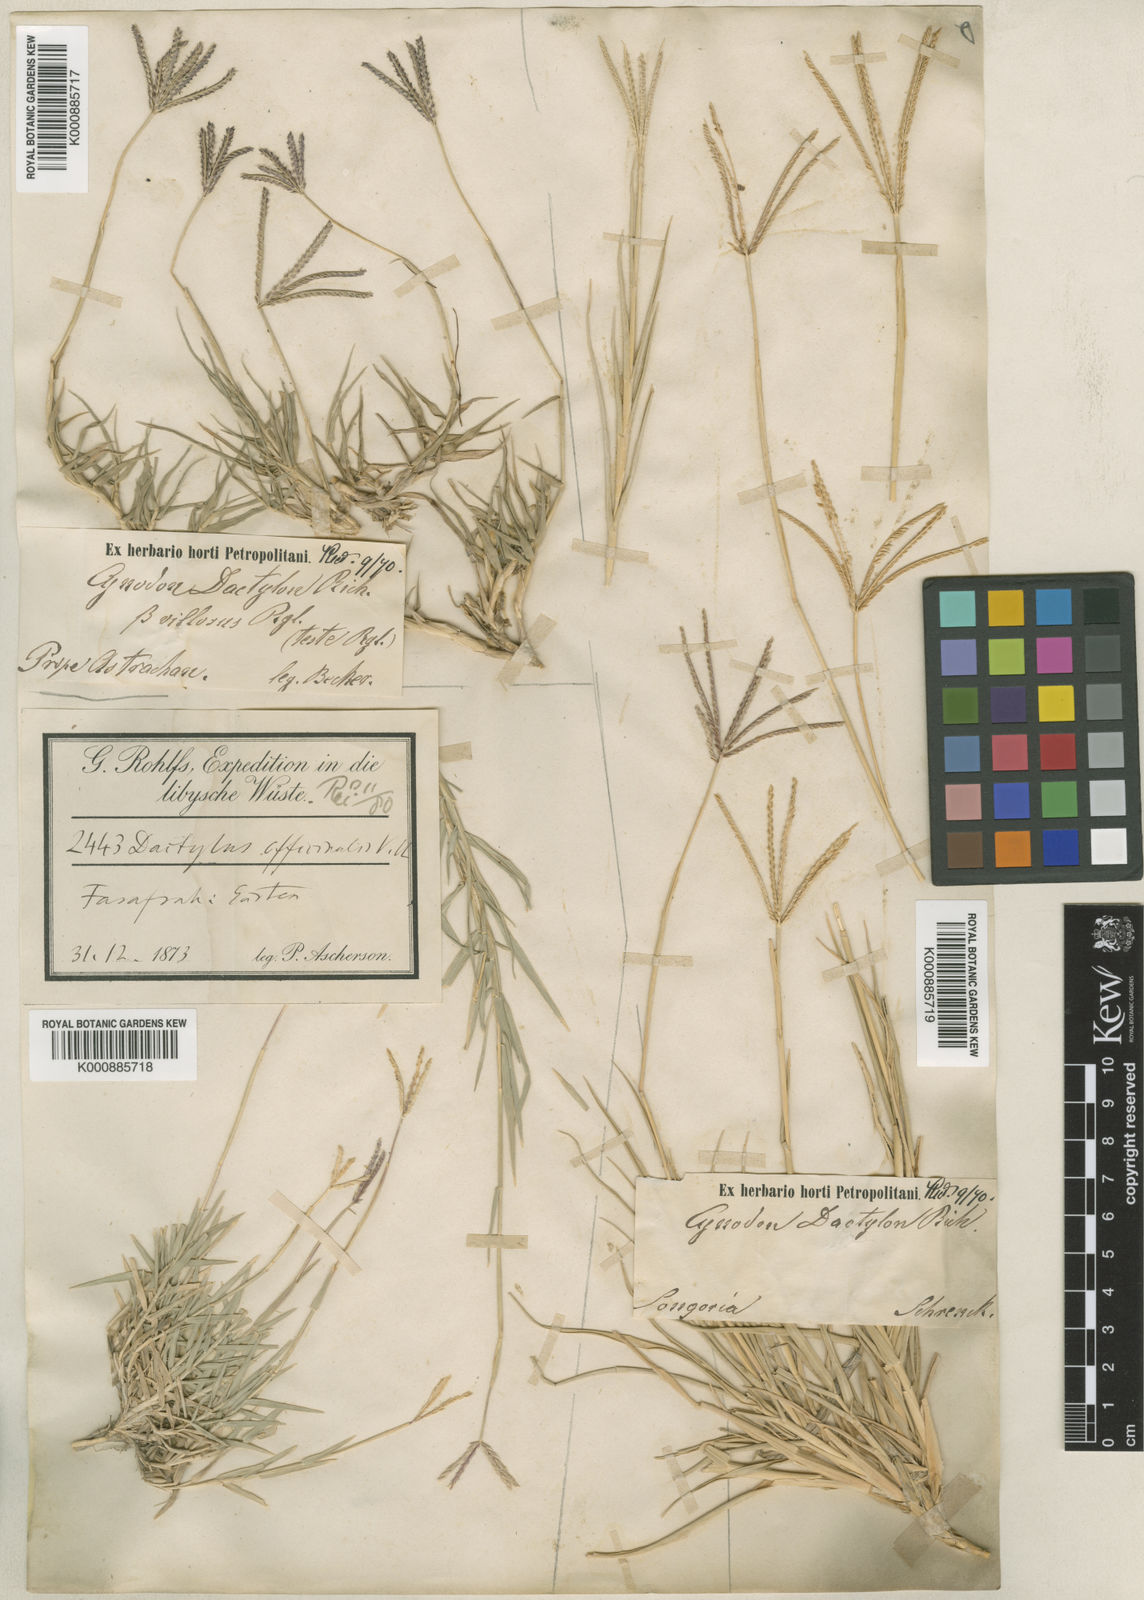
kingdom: Plantae
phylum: Tracheophyta
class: Liliopsida
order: Poales
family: Poaceae
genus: Cynodon
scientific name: Cynodon dactylon
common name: Bermuda grass
